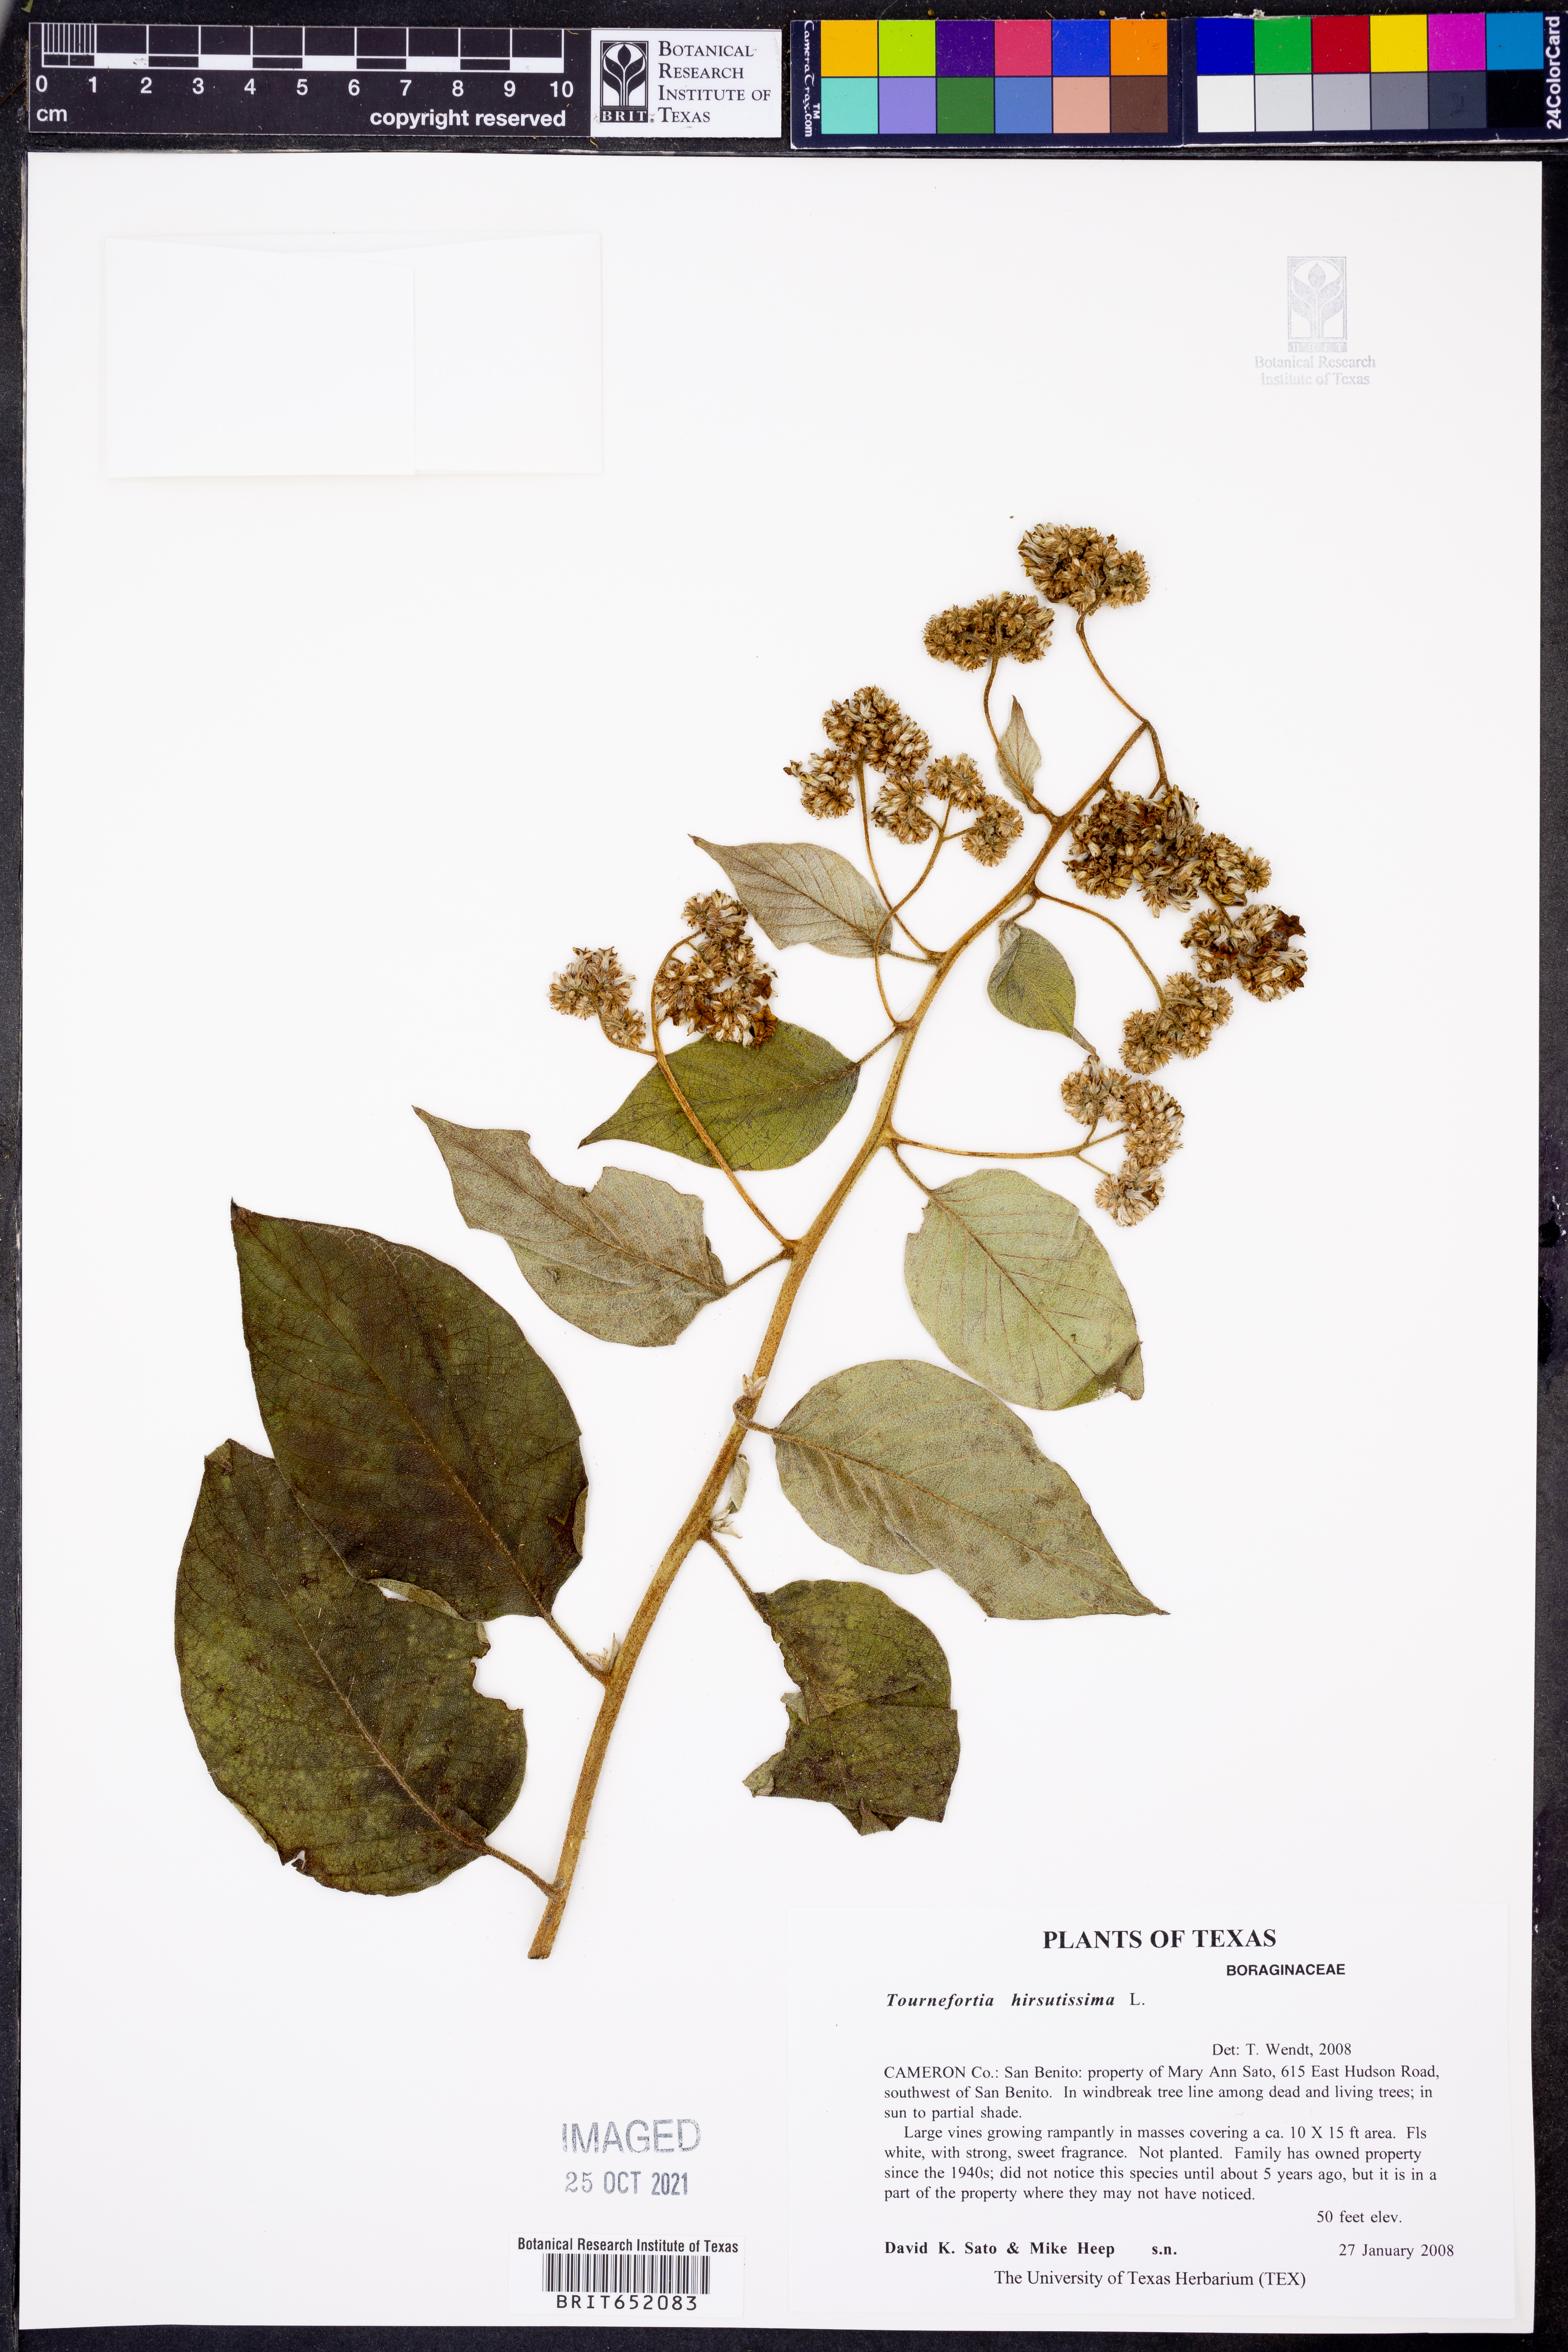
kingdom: Plantae
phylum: Tracheophyta
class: Magnoliopsida
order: Boraginales
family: Heliotropiaceae
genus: Heliotropium
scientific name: Heliotropium verdcourtii
